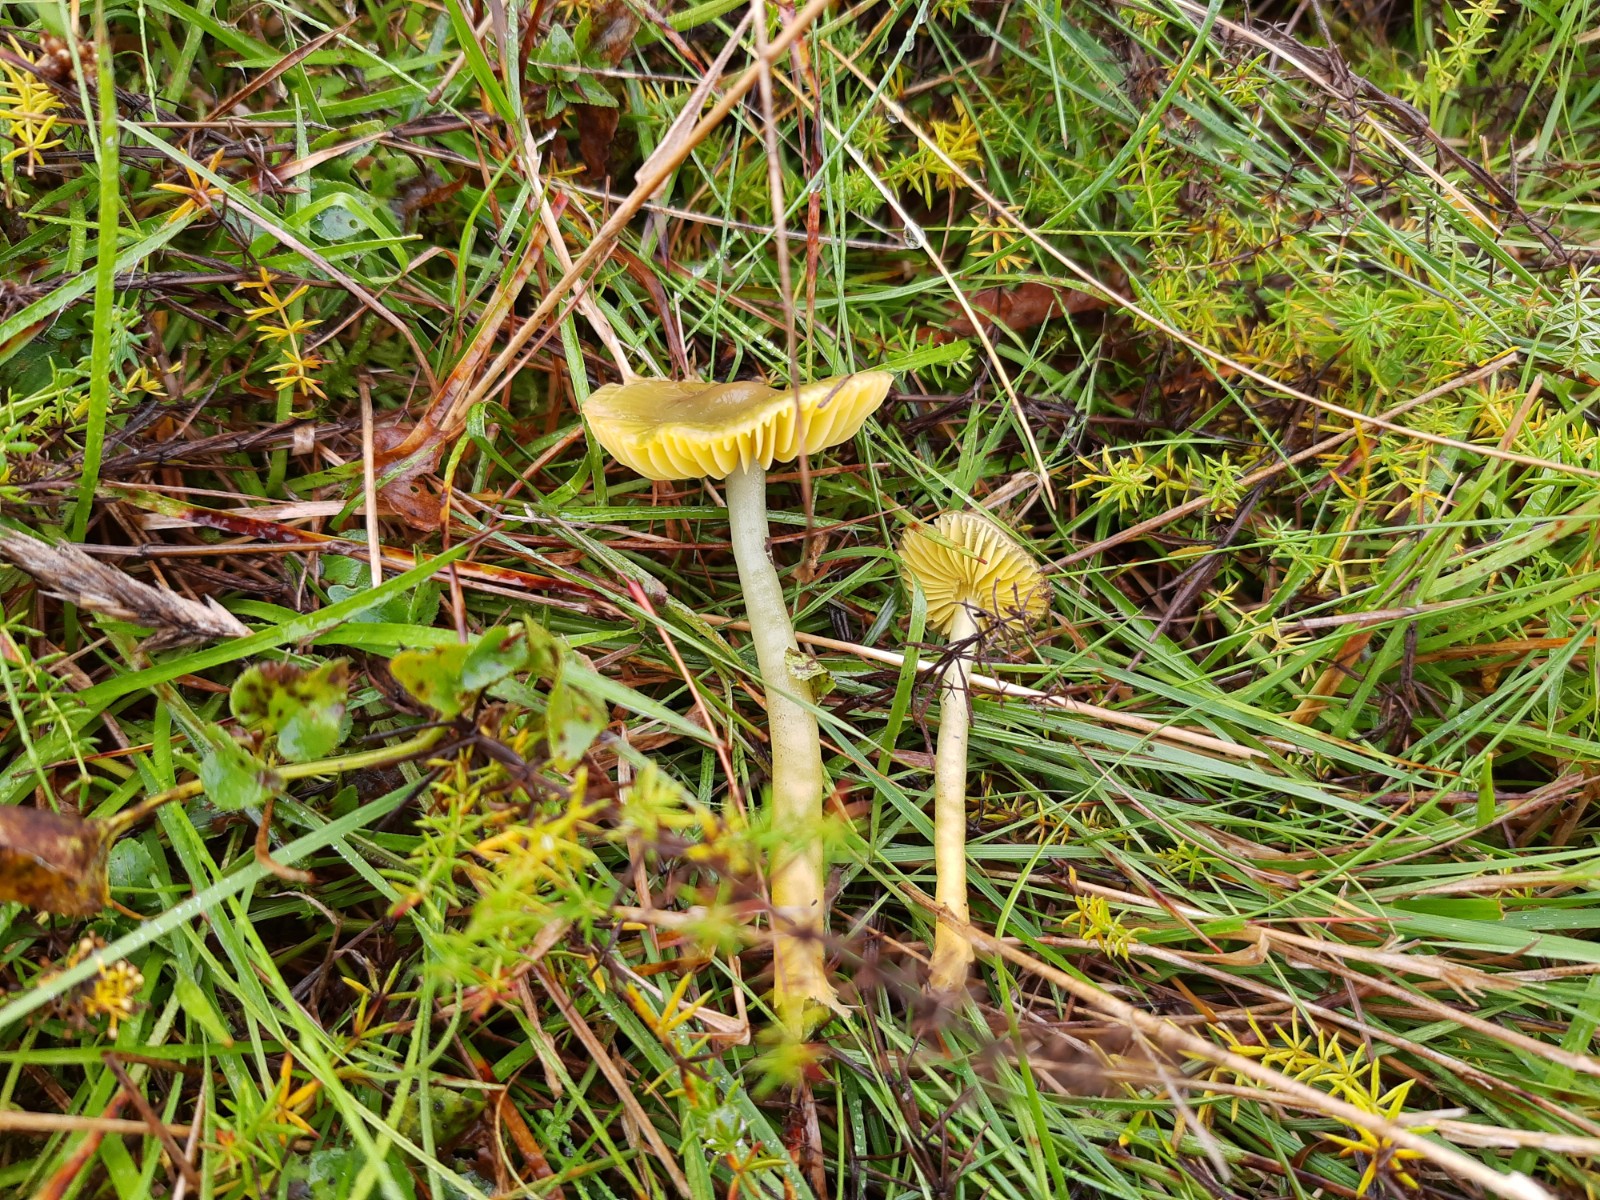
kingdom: Fungi
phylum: Basidiomycota
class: Agaricomycetes
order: Agaricales
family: Hygrophoraceae
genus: Gliophorus
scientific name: Gliophorus psittacinus
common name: papegøje-vokshat
